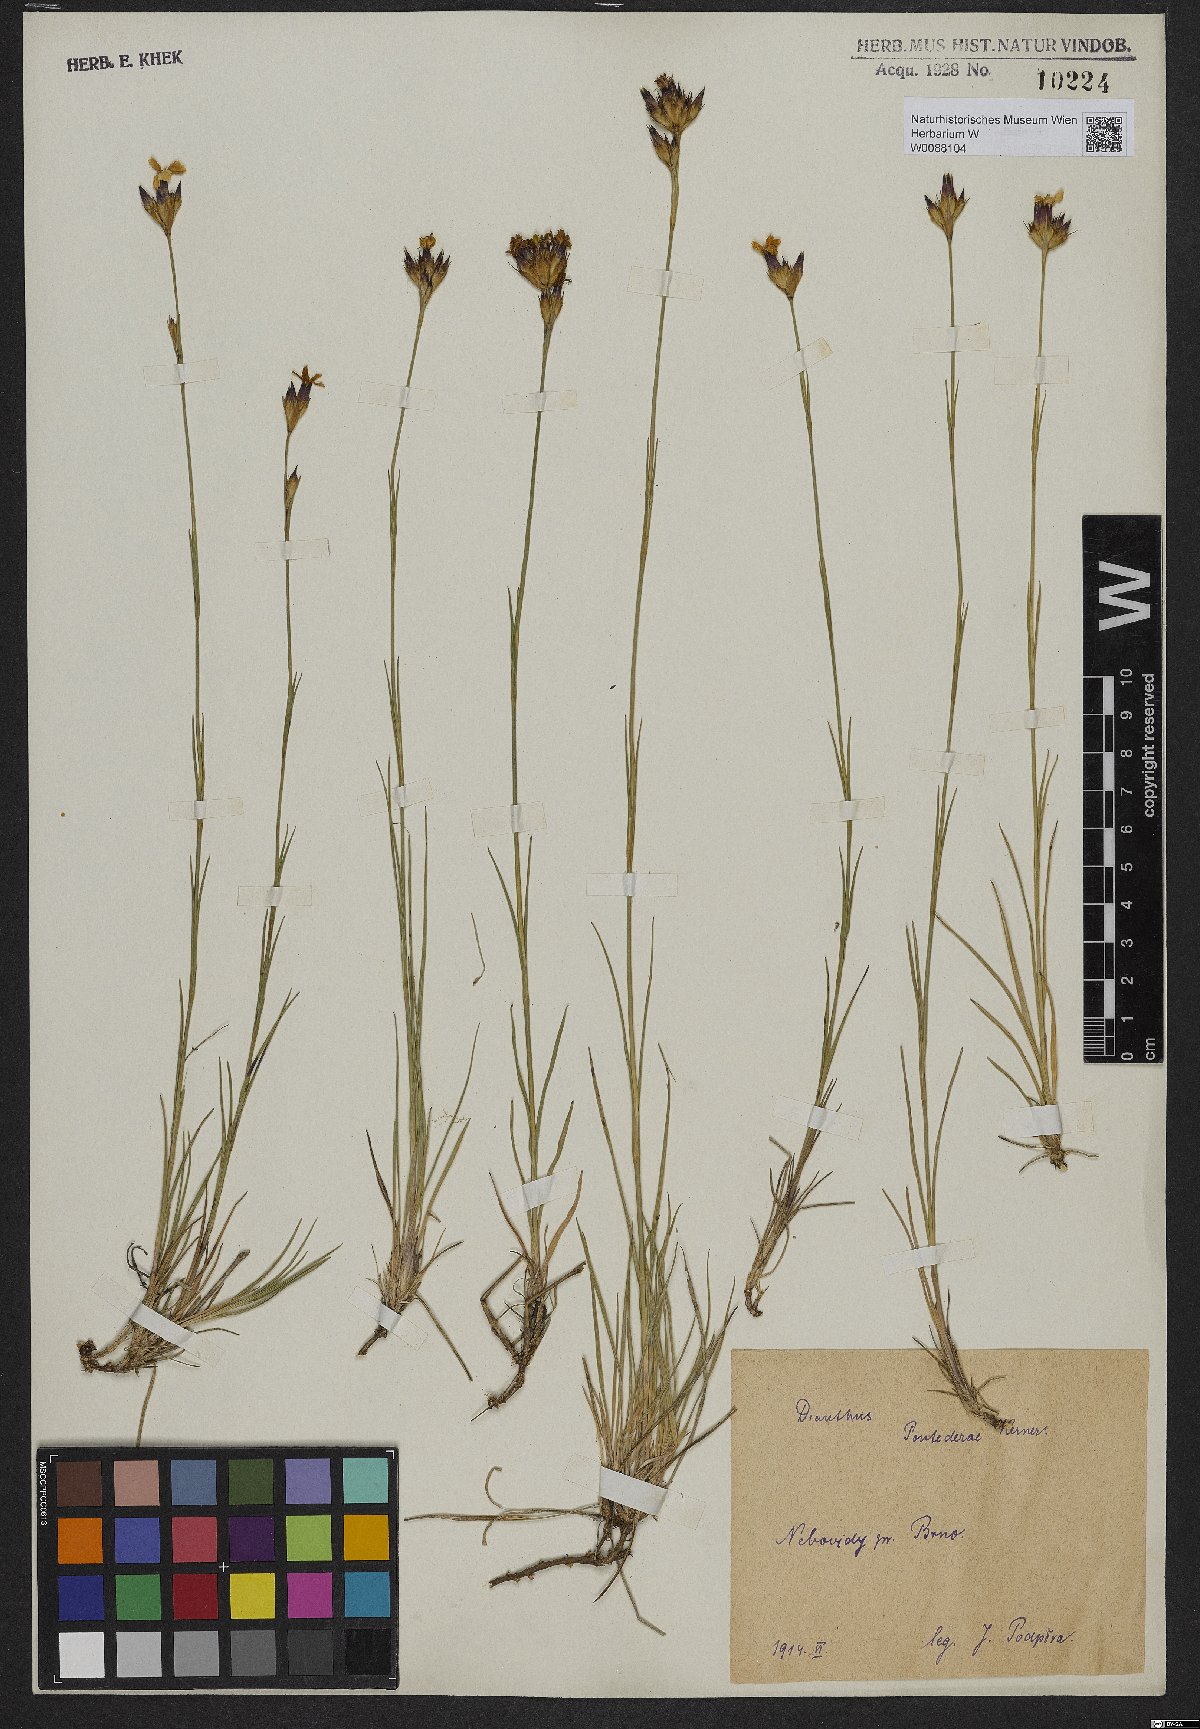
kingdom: Plantae
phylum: Tracheophyta
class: Magnoliopsida
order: Caryophyllales
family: Caryophyllaceae
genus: Dianthus
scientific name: Dianthus pontederae
